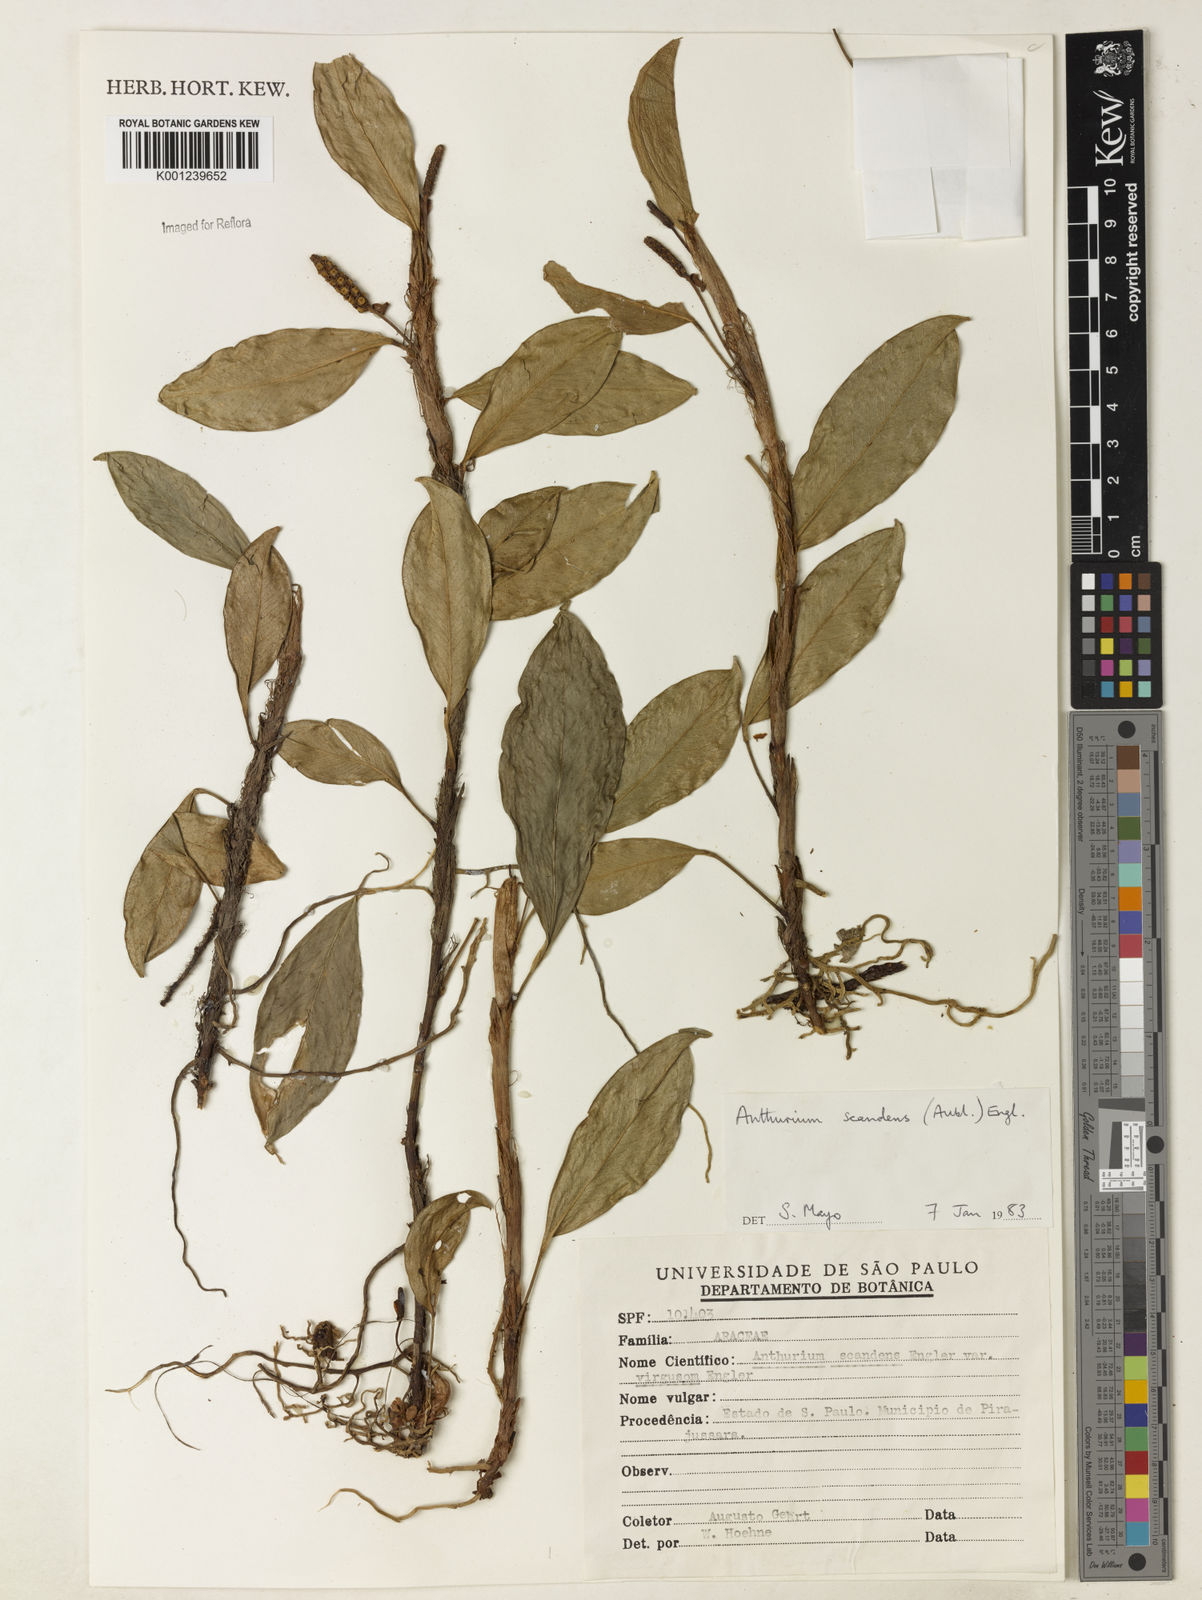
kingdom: Plantae
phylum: Tracheophyta
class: Liliopsida
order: Alismatales
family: Araceae
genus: Anthurium
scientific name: Anthurium scandens
